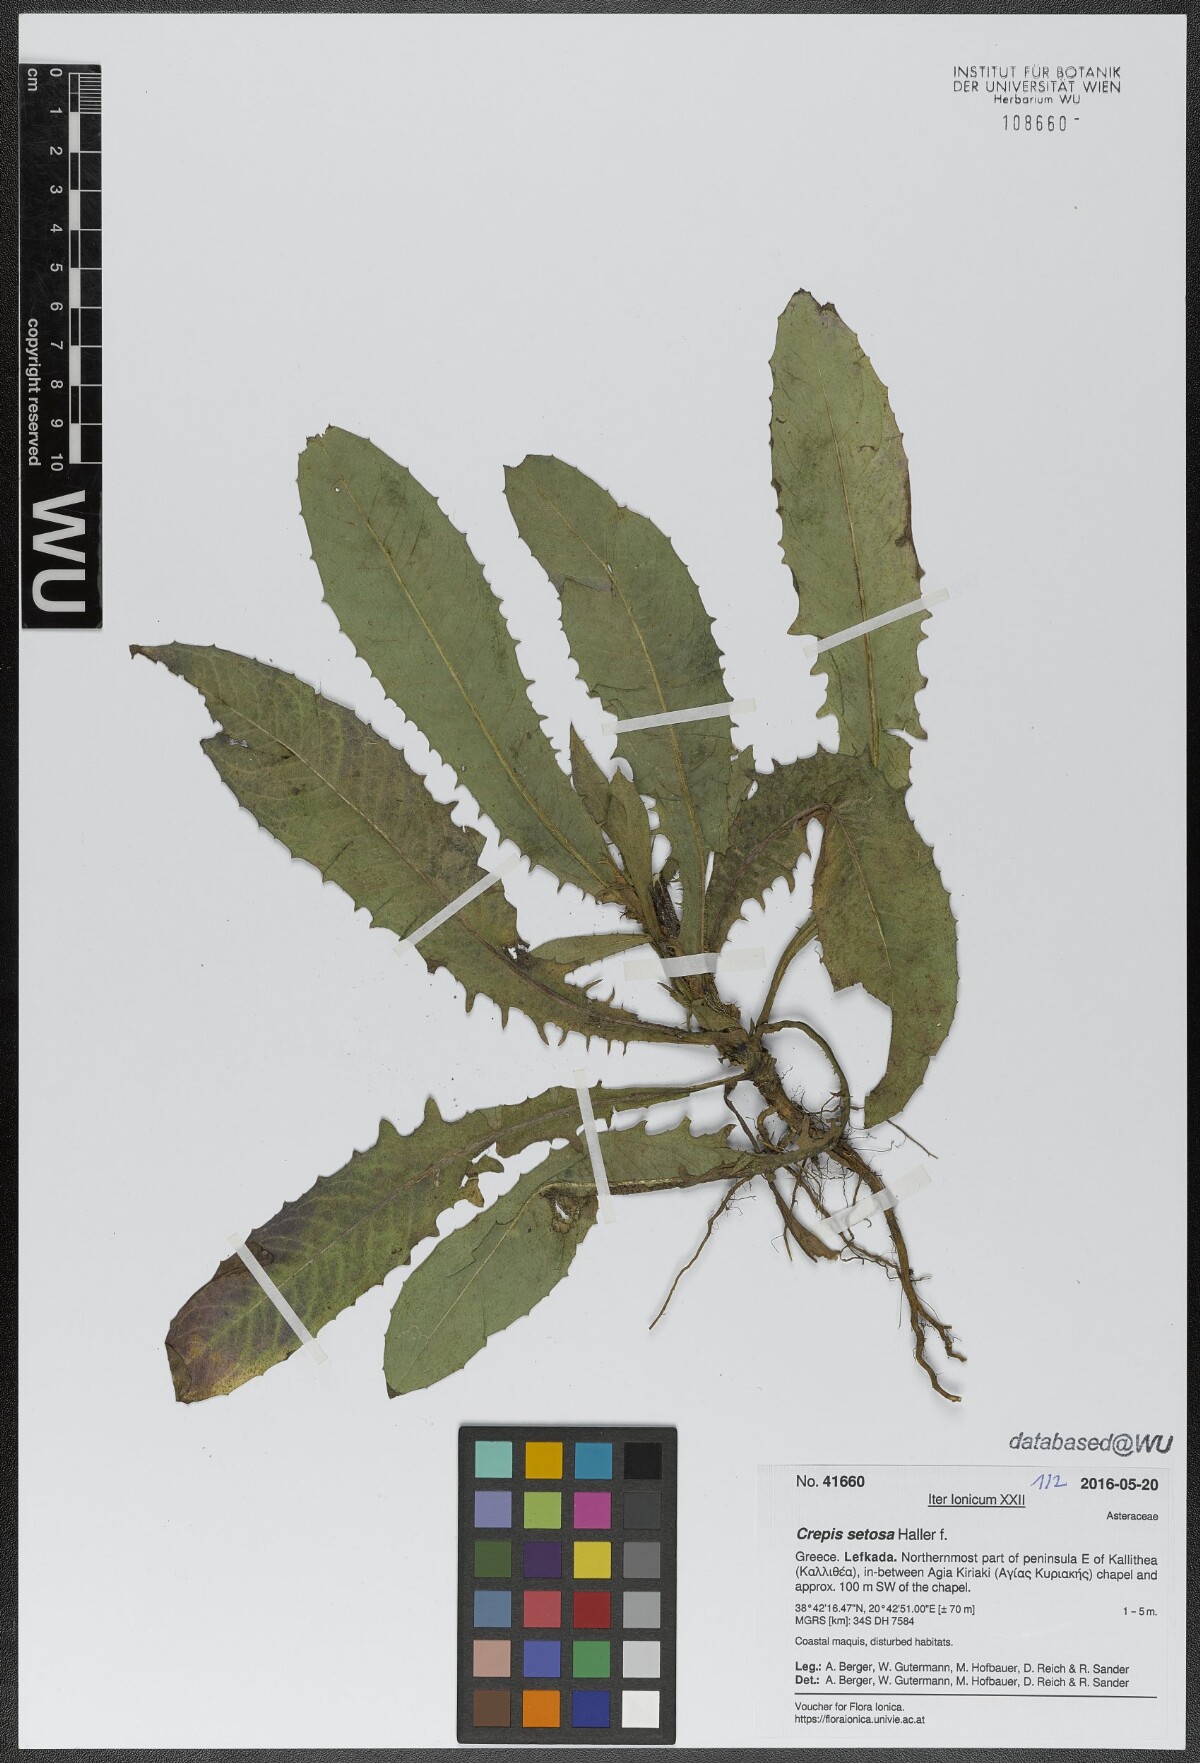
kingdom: Plantae
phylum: Tracheophyta
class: Magnoliopsida
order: Asterales
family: Asteraceae
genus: Crepis
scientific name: Crepis setosa
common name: Bristly hawk's-beard
